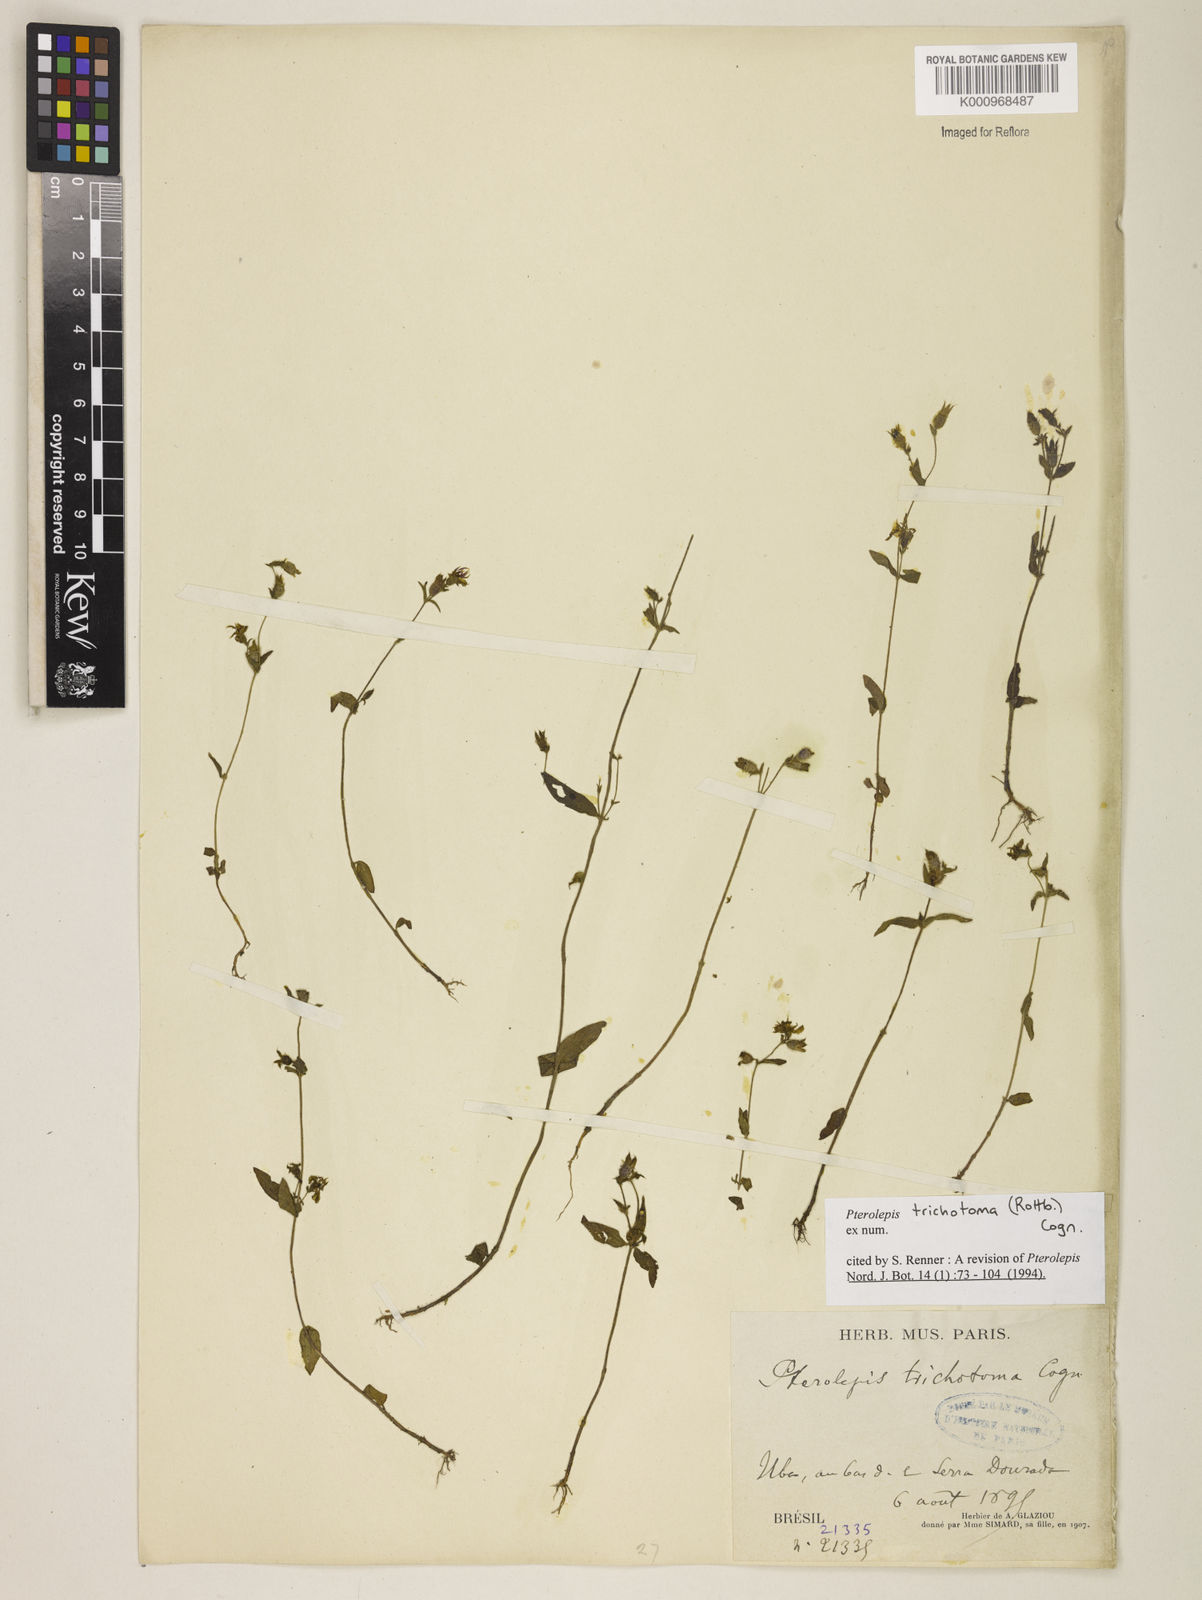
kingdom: Plantae
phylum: Tracheophyta
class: Magnoliopsida
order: Myrtales
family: Melastomataceae
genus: Pterolepis
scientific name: Pterolepis trichotoma
